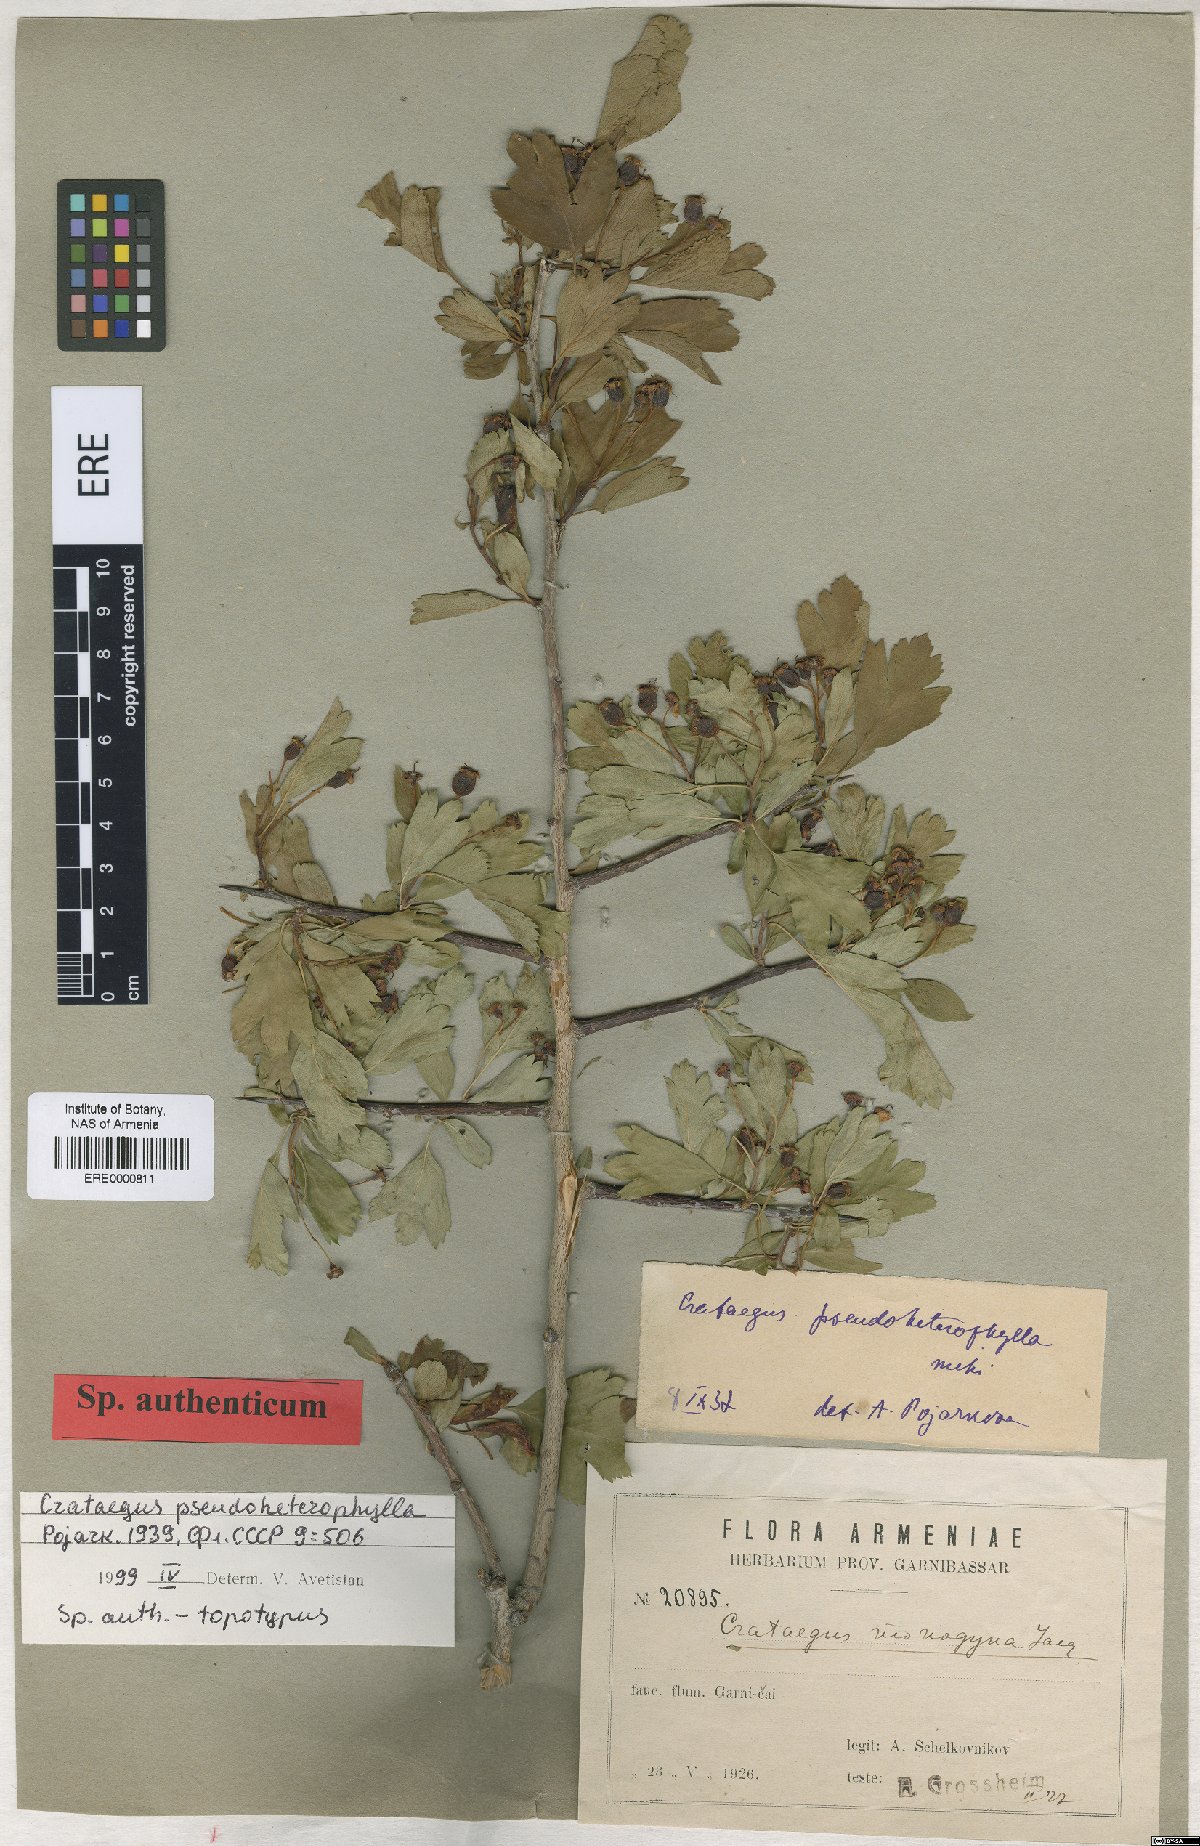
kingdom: Plantae
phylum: Tracheophyta
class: Magnoliopsida
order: Rosales
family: Rosaceae
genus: Crataegus
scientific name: Crataegus pseudoheterophylla
